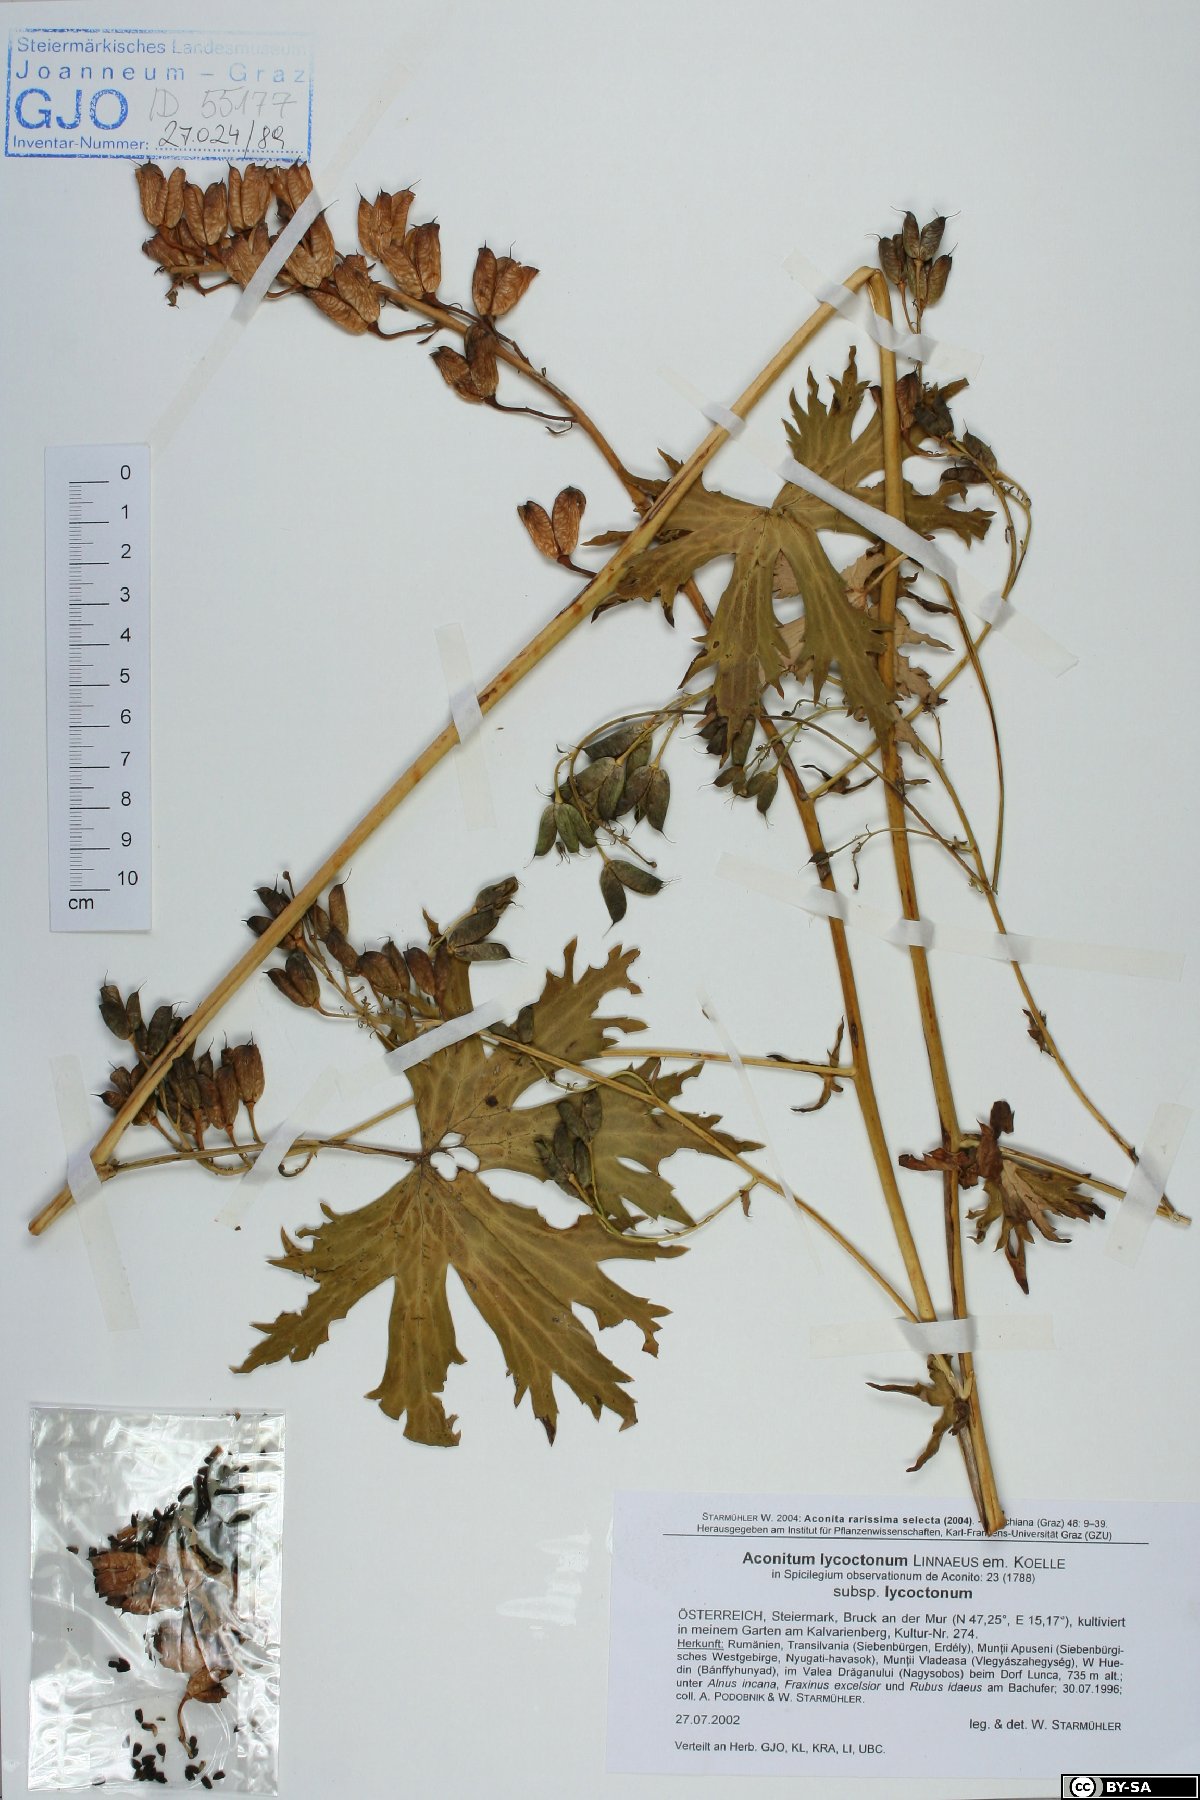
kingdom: Plantae
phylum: Tracheophyta
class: Magnoliopsida
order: Ranunculales
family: Ranunculaceae
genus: Aconitum
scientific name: Aconitum lycoctonum
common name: Wolf's-bane
